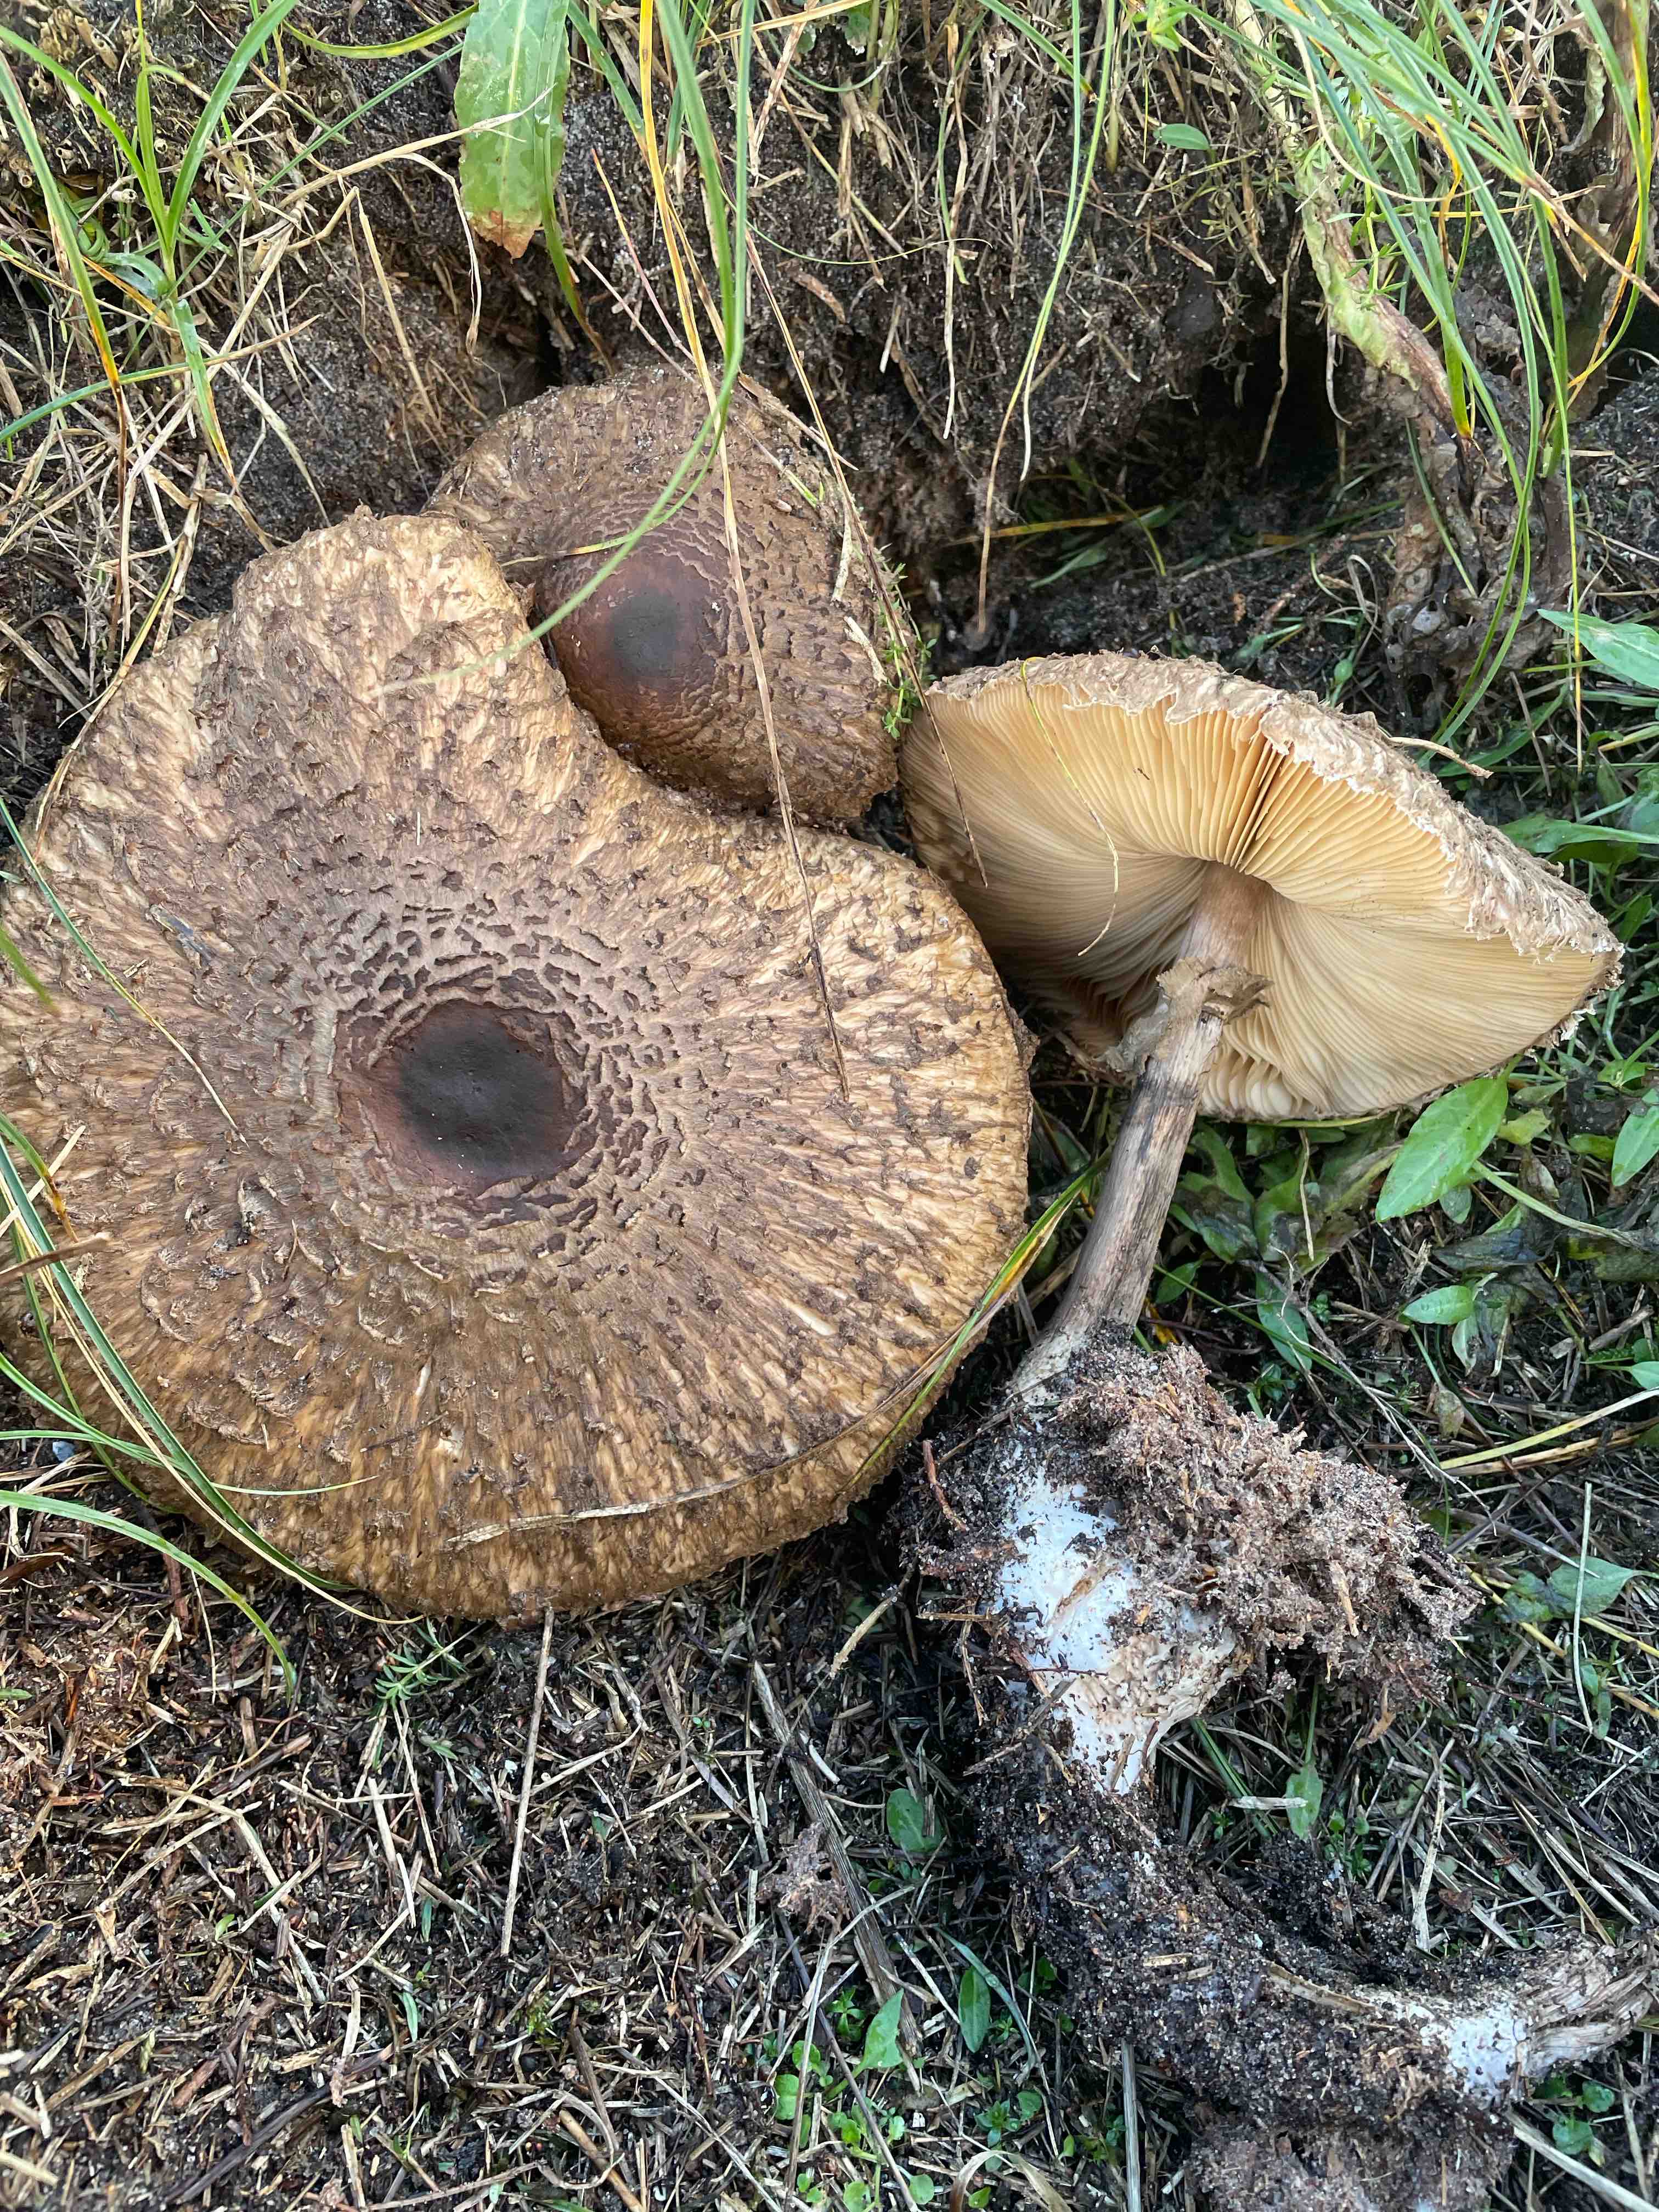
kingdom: Fungi
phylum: Basidiomycota
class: Agaricomycetes
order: Agaricales
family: Agaricaceae
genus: Chlorophyllum
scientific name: Chlorophyllum olivieri
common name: almindelig rabarberhat
